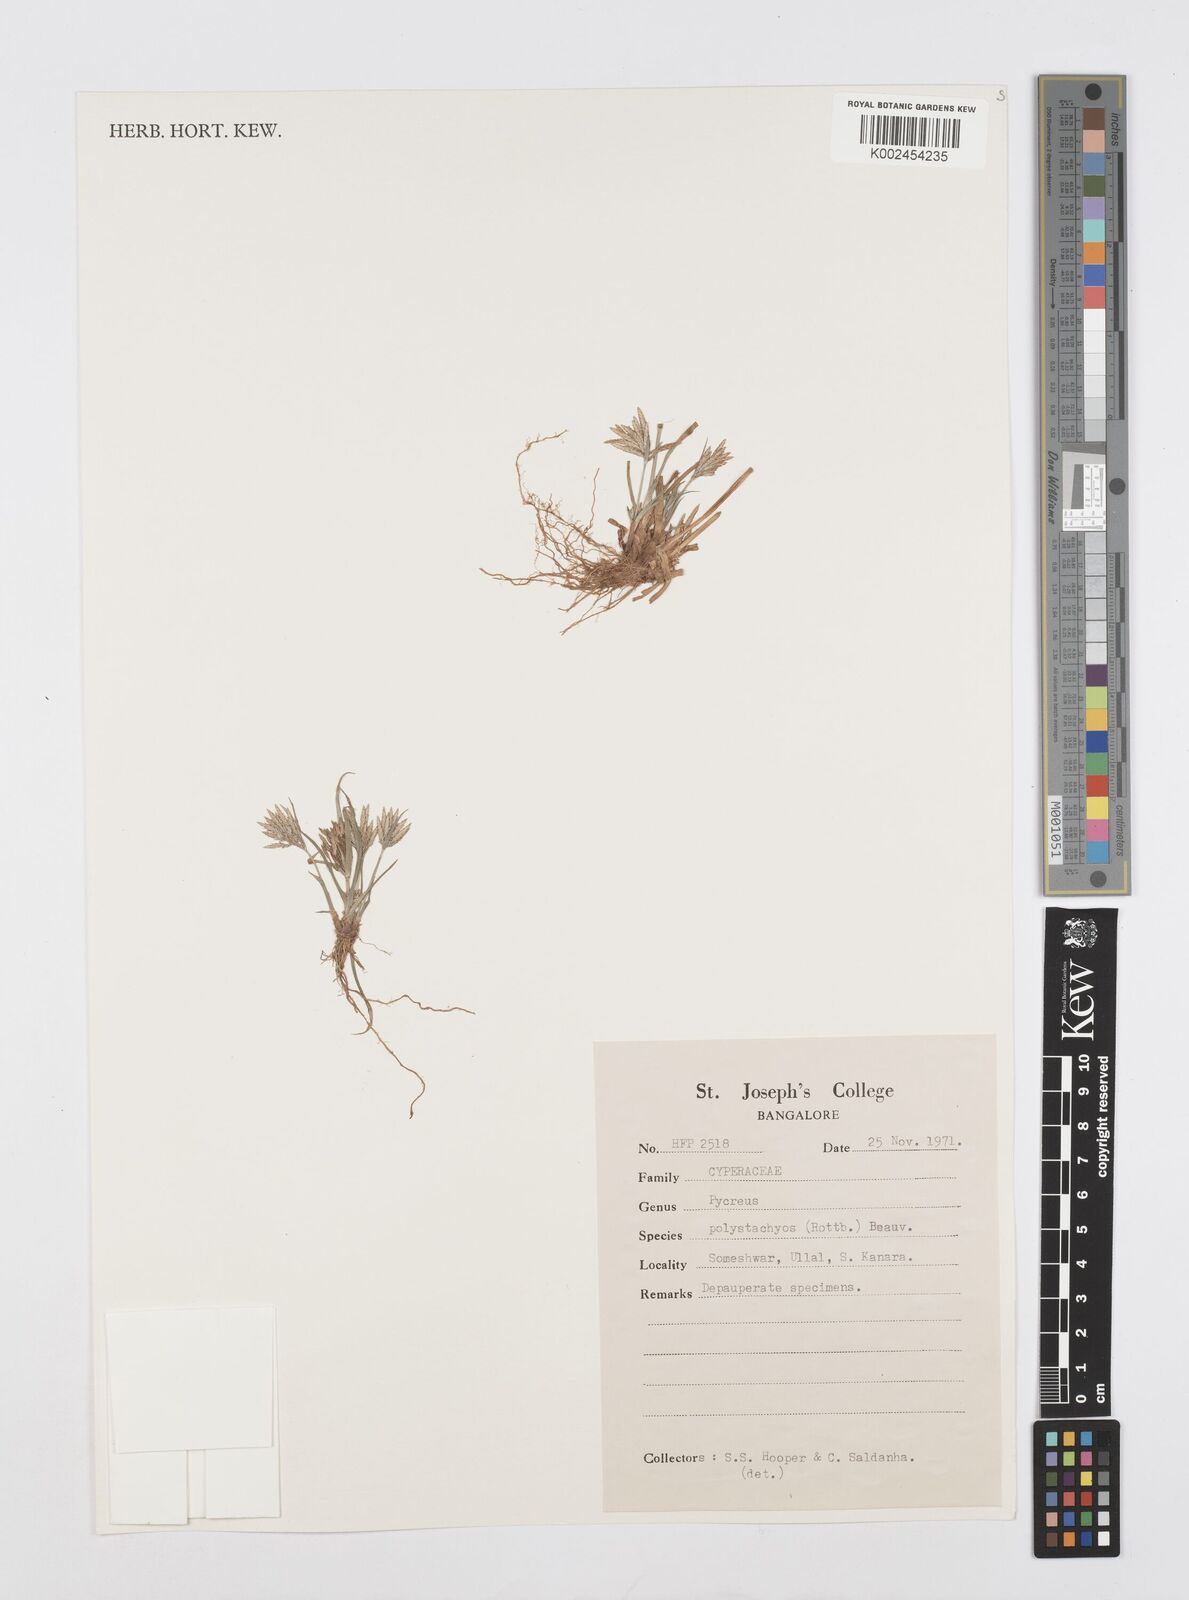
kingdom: Plantae
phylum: Tracheophyta
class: Liliopsida
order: Poales
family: Cyperaceae
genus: Cyperus
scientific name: Cyperus polystachyos
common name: Bunchy flat sedge
